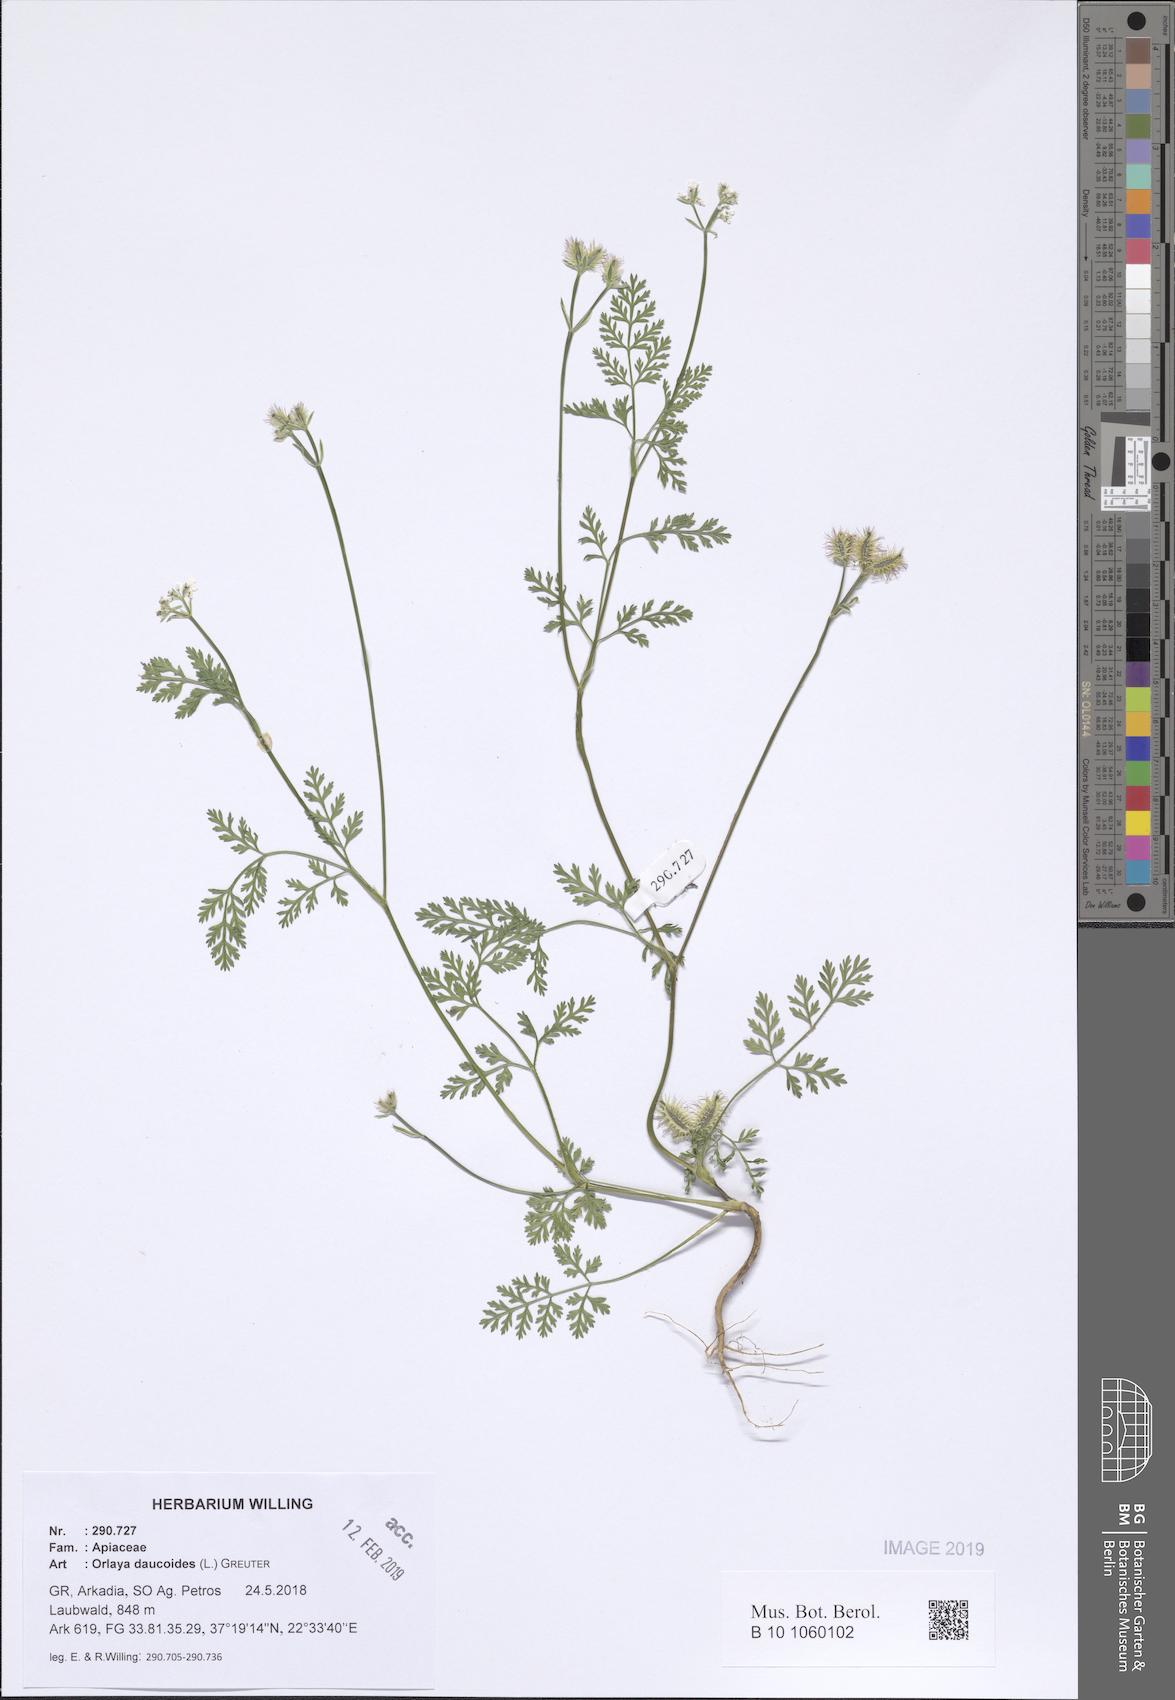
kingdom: Plantae
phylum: Tracheophyta
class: Magnoliopsida
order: Apiales
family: Apiaceae
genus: Orlaya
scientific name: Orlaya daucoides
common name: Flat-fruit orlaya
